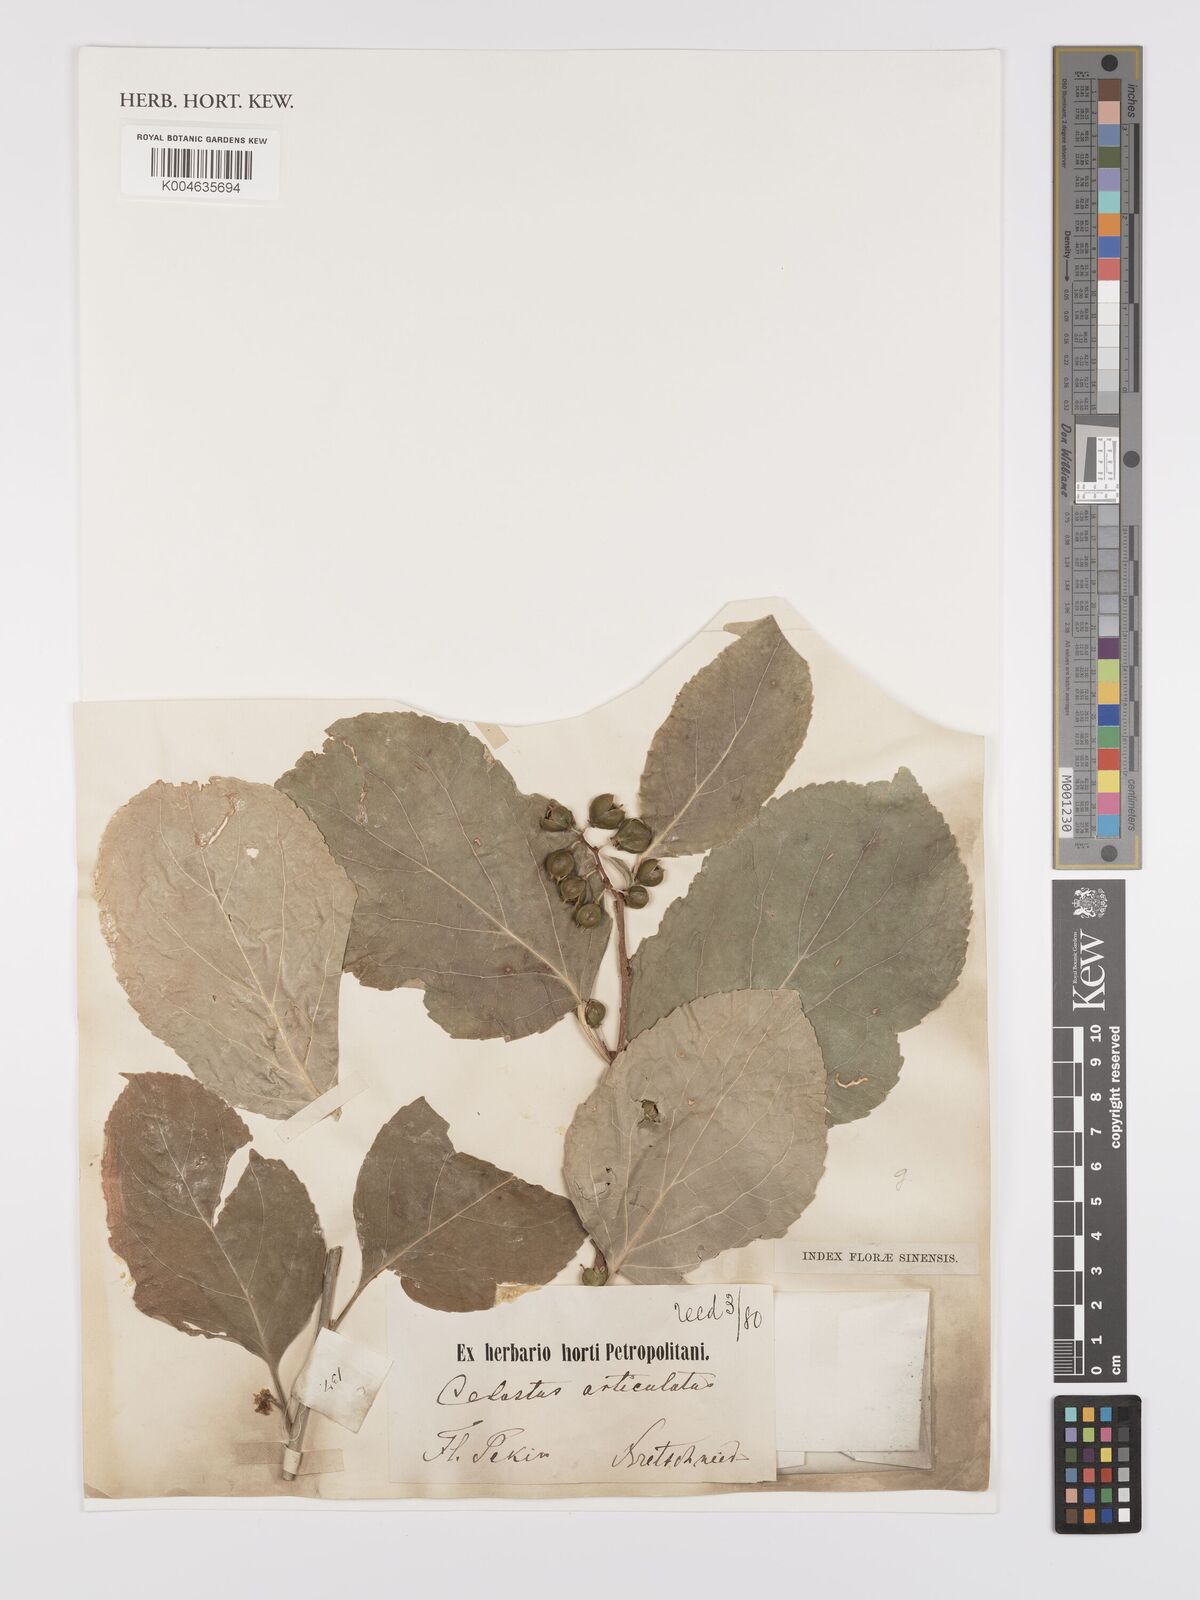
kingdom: Plantae
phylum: Tracheophyta
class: Magnoliopsida
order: Celastrales
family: Celastraceae
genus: Celastrus
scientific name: Celastrus orbiculatus
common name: Oriental bittersweet
